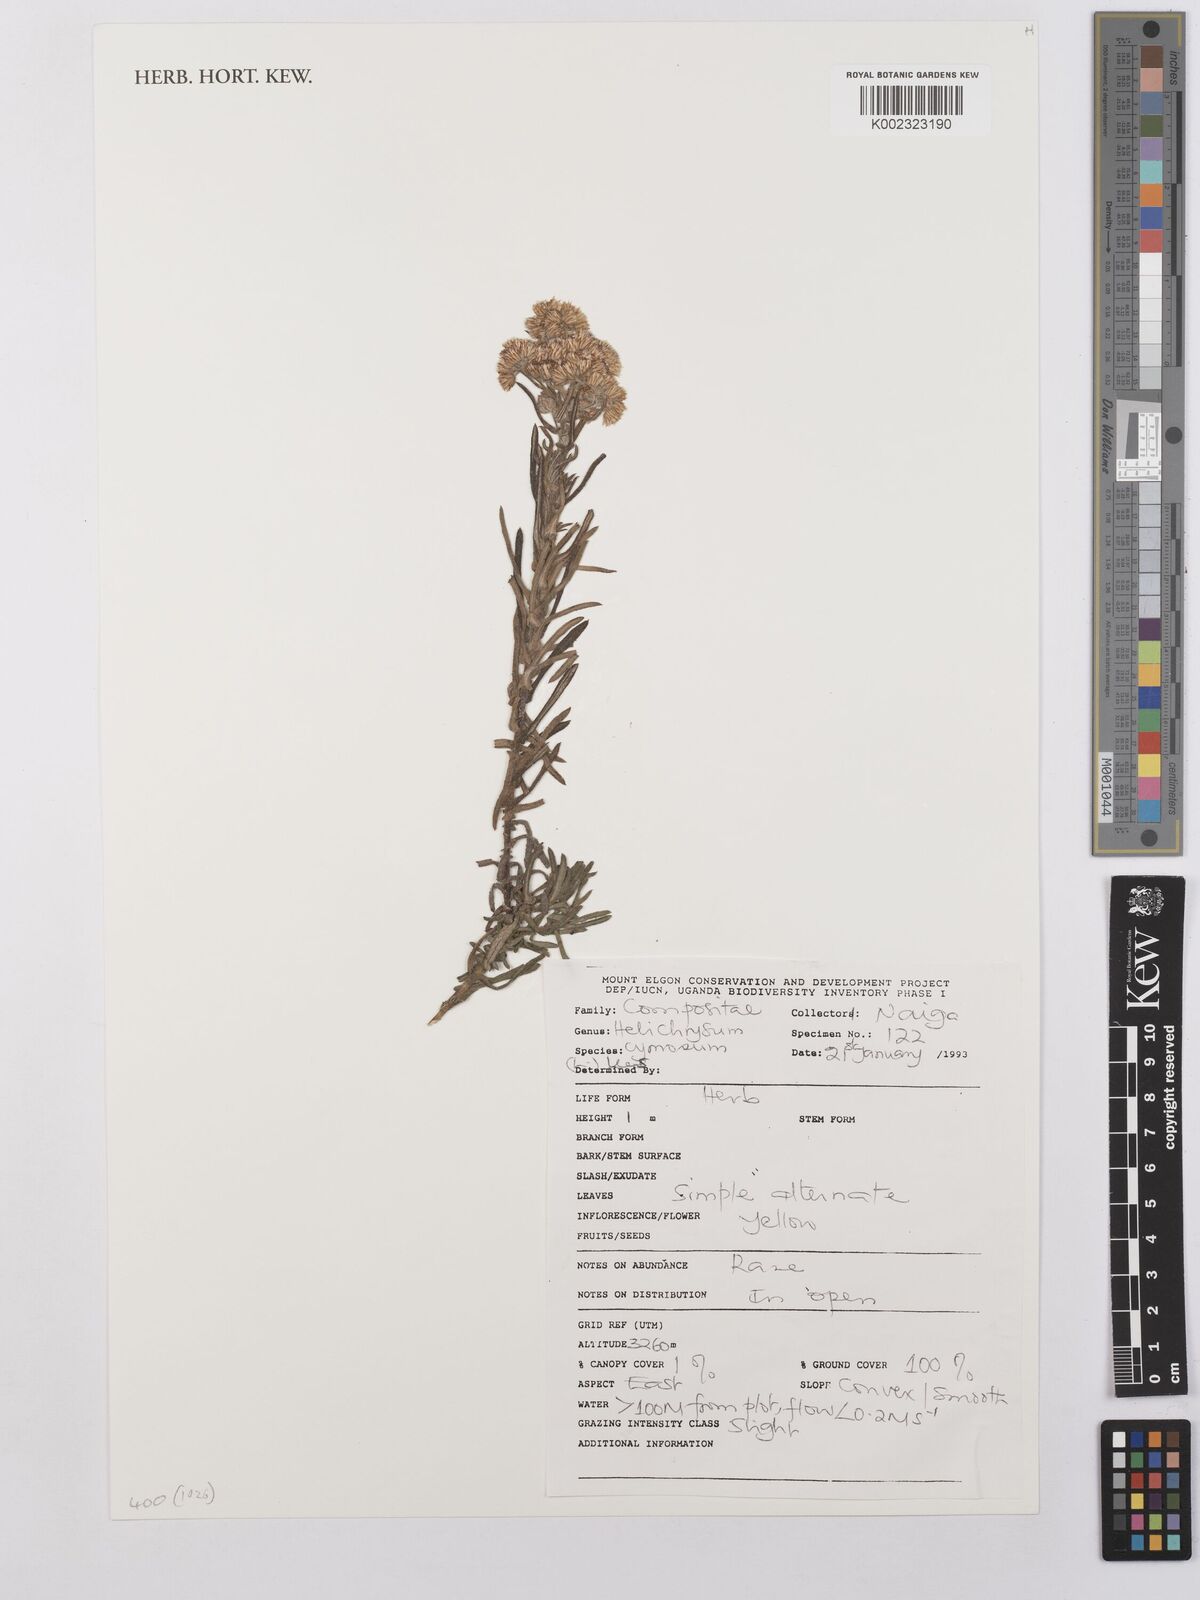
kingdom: Plantae
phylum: Tracheophyta
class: Magnoliopsida
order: Asterales
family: Asteraceae
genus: Helichrysum
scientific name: Helichrysum forskahlii
